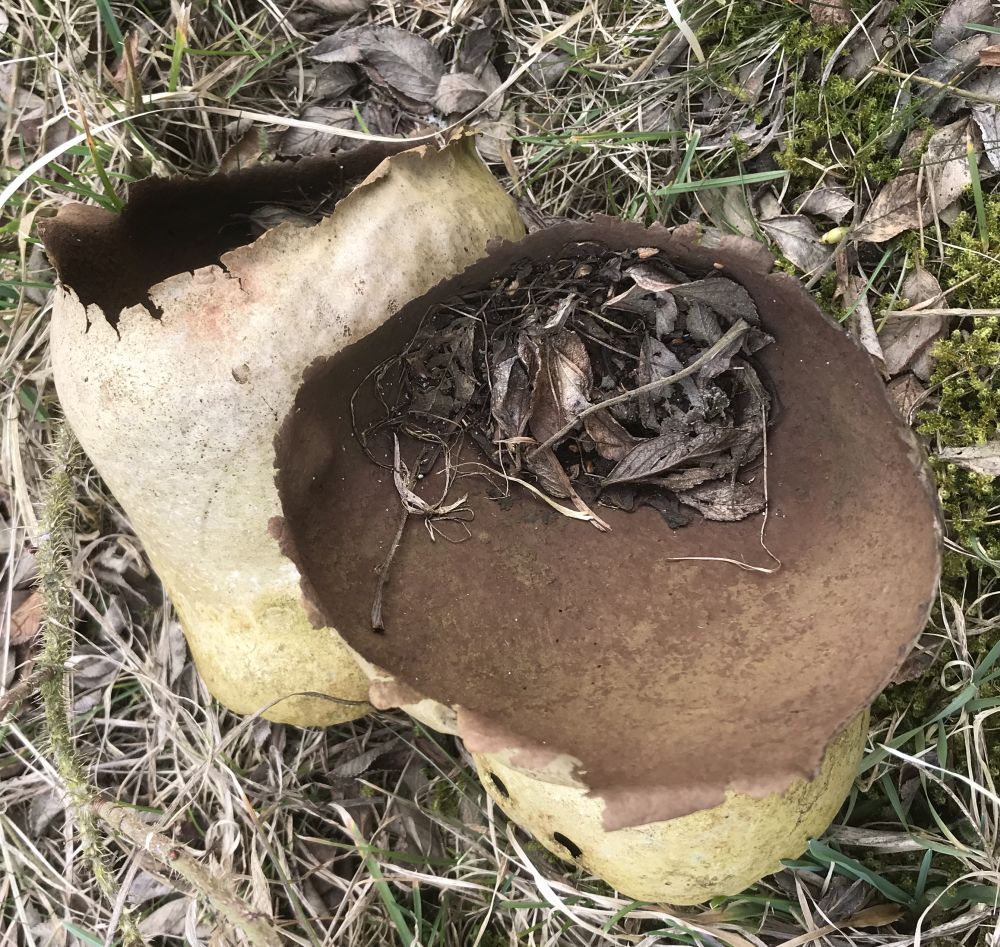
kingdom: Fungi
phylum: Basidiomycota
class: Agaricomycetes
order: Agaricales
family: Lycoperdaceae
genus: Bovistella
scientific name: Bovistella utriformis
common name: skællet støvbold
